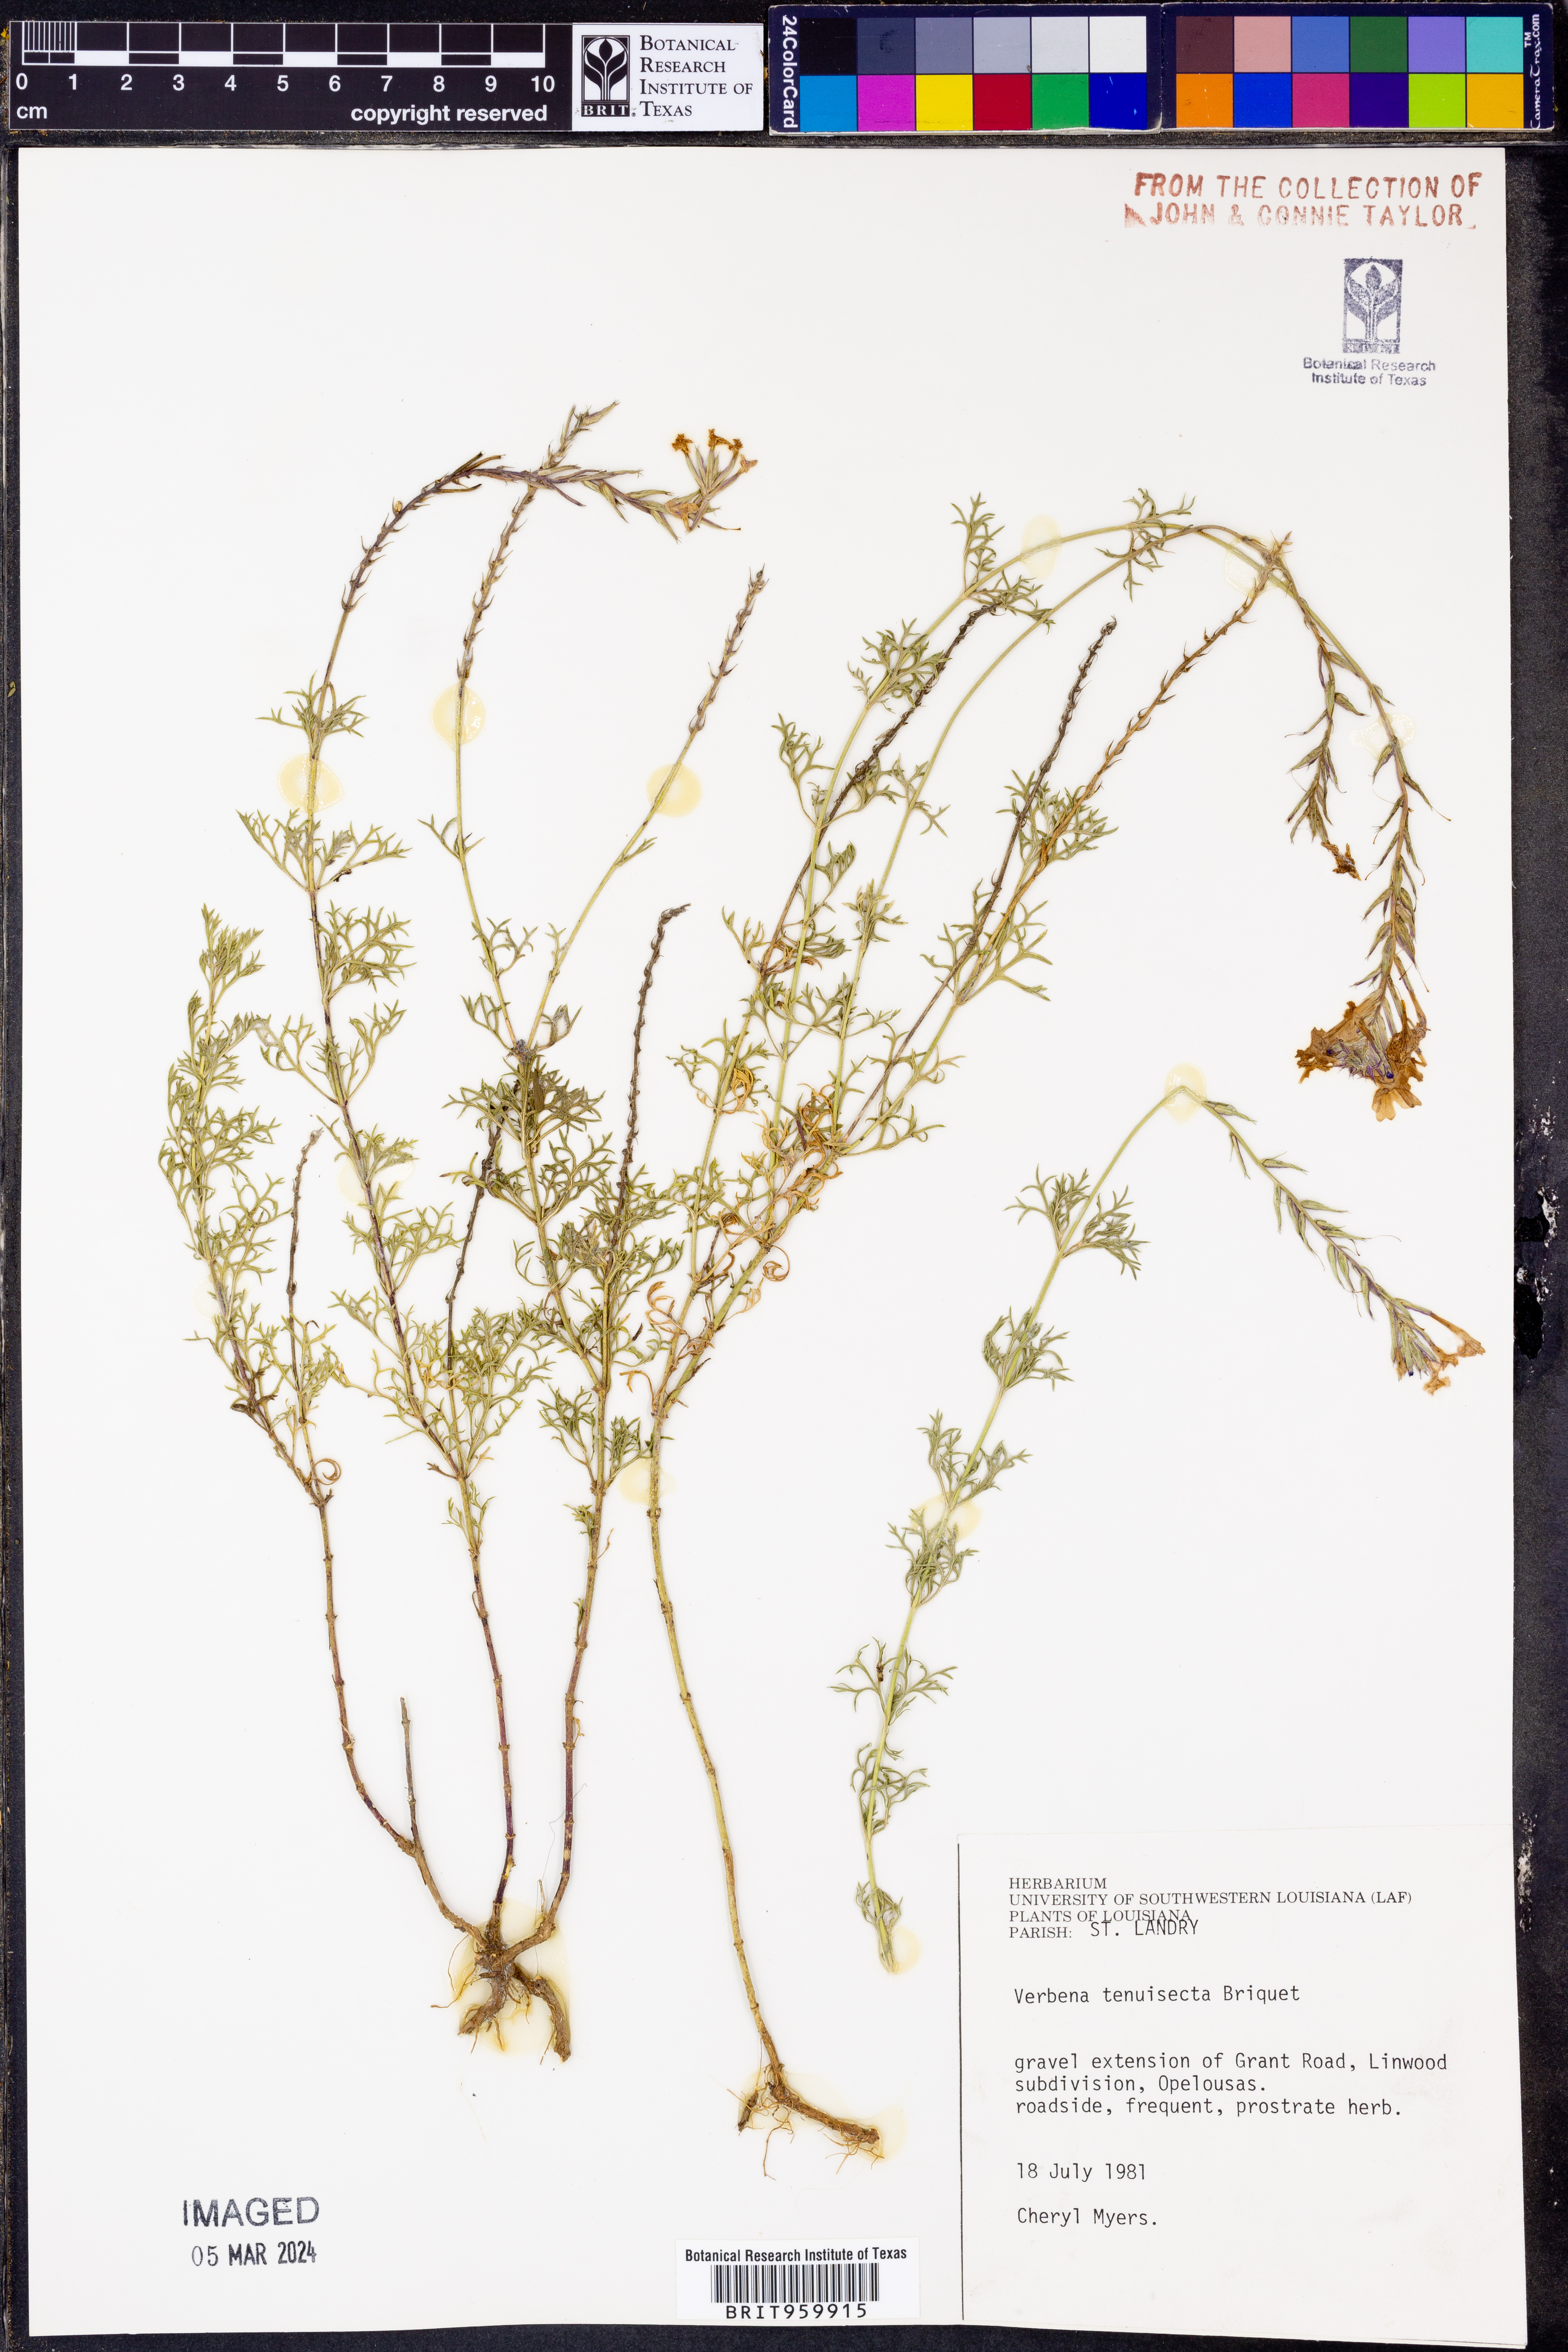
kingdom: Plantae
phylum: Tracheophyta
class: Magnoliopsida
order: Lamiales
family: Verbenaceae
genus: Verbena
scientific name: Verbena tenera
